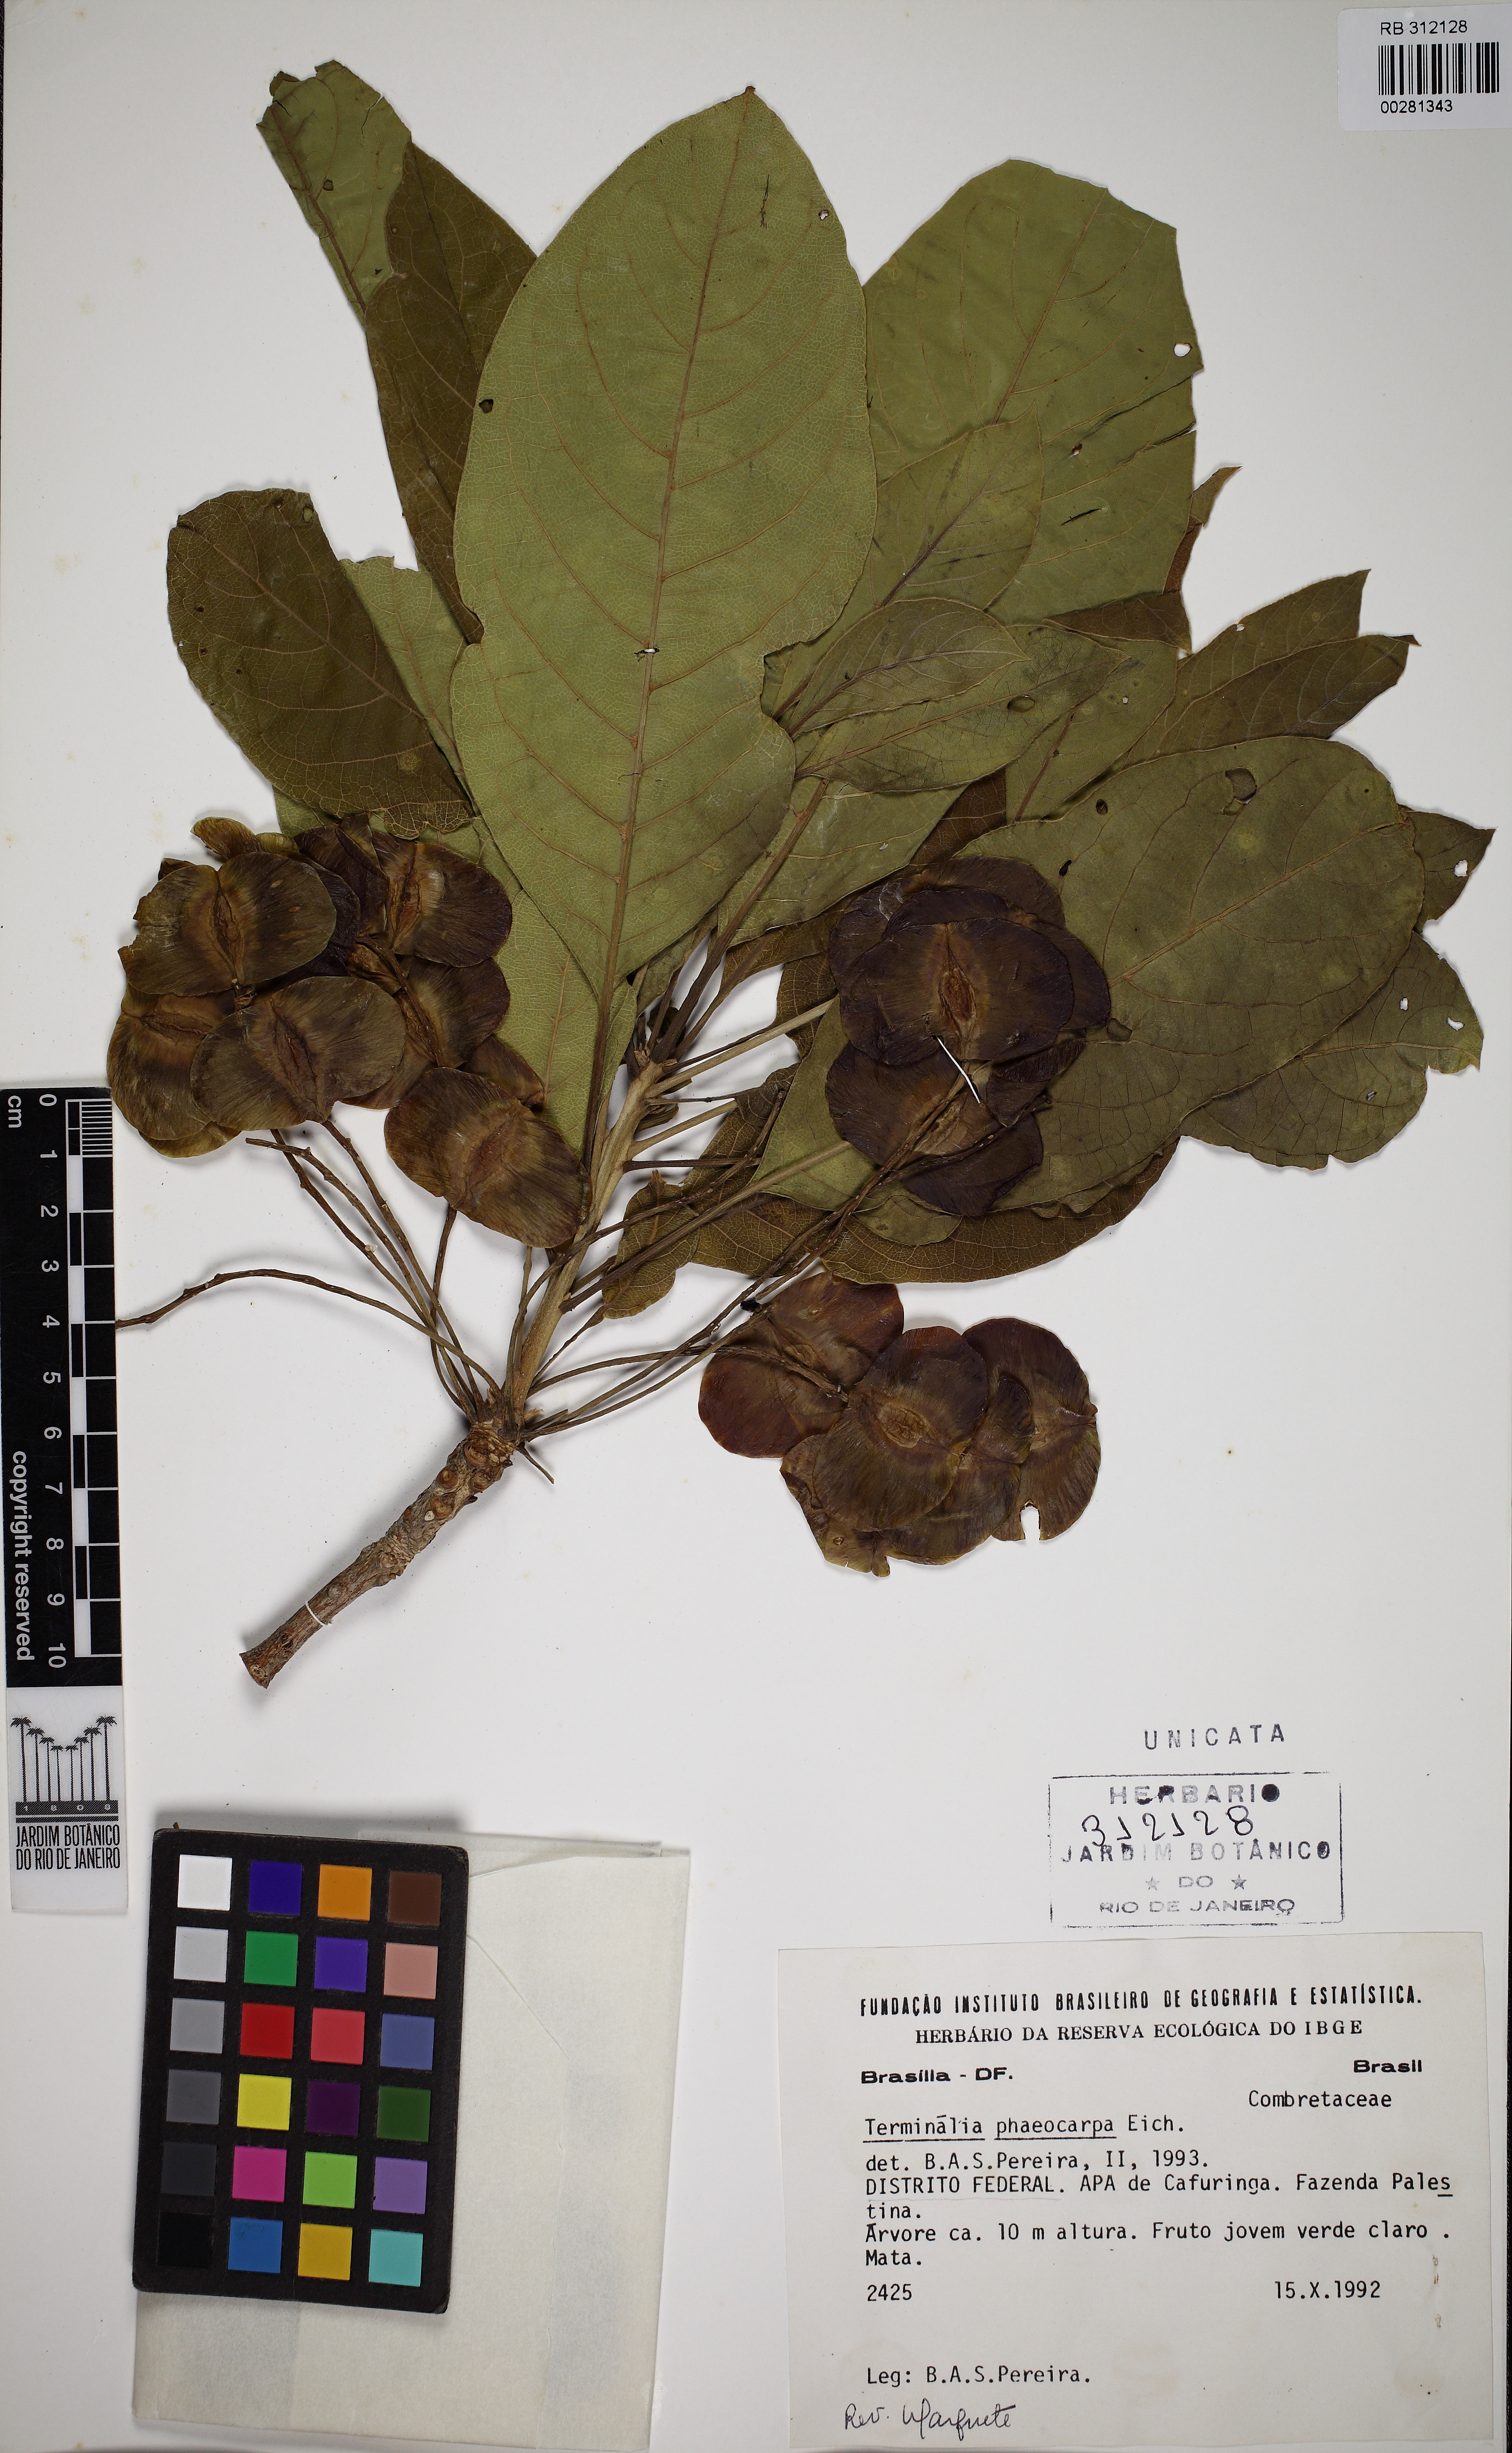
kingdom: Plantae
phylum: Tracheophyta
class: Magnoliopsida
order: Myrtales
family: Combretaceae
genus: Terminalia
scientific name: Terminalia phaeocarpa
